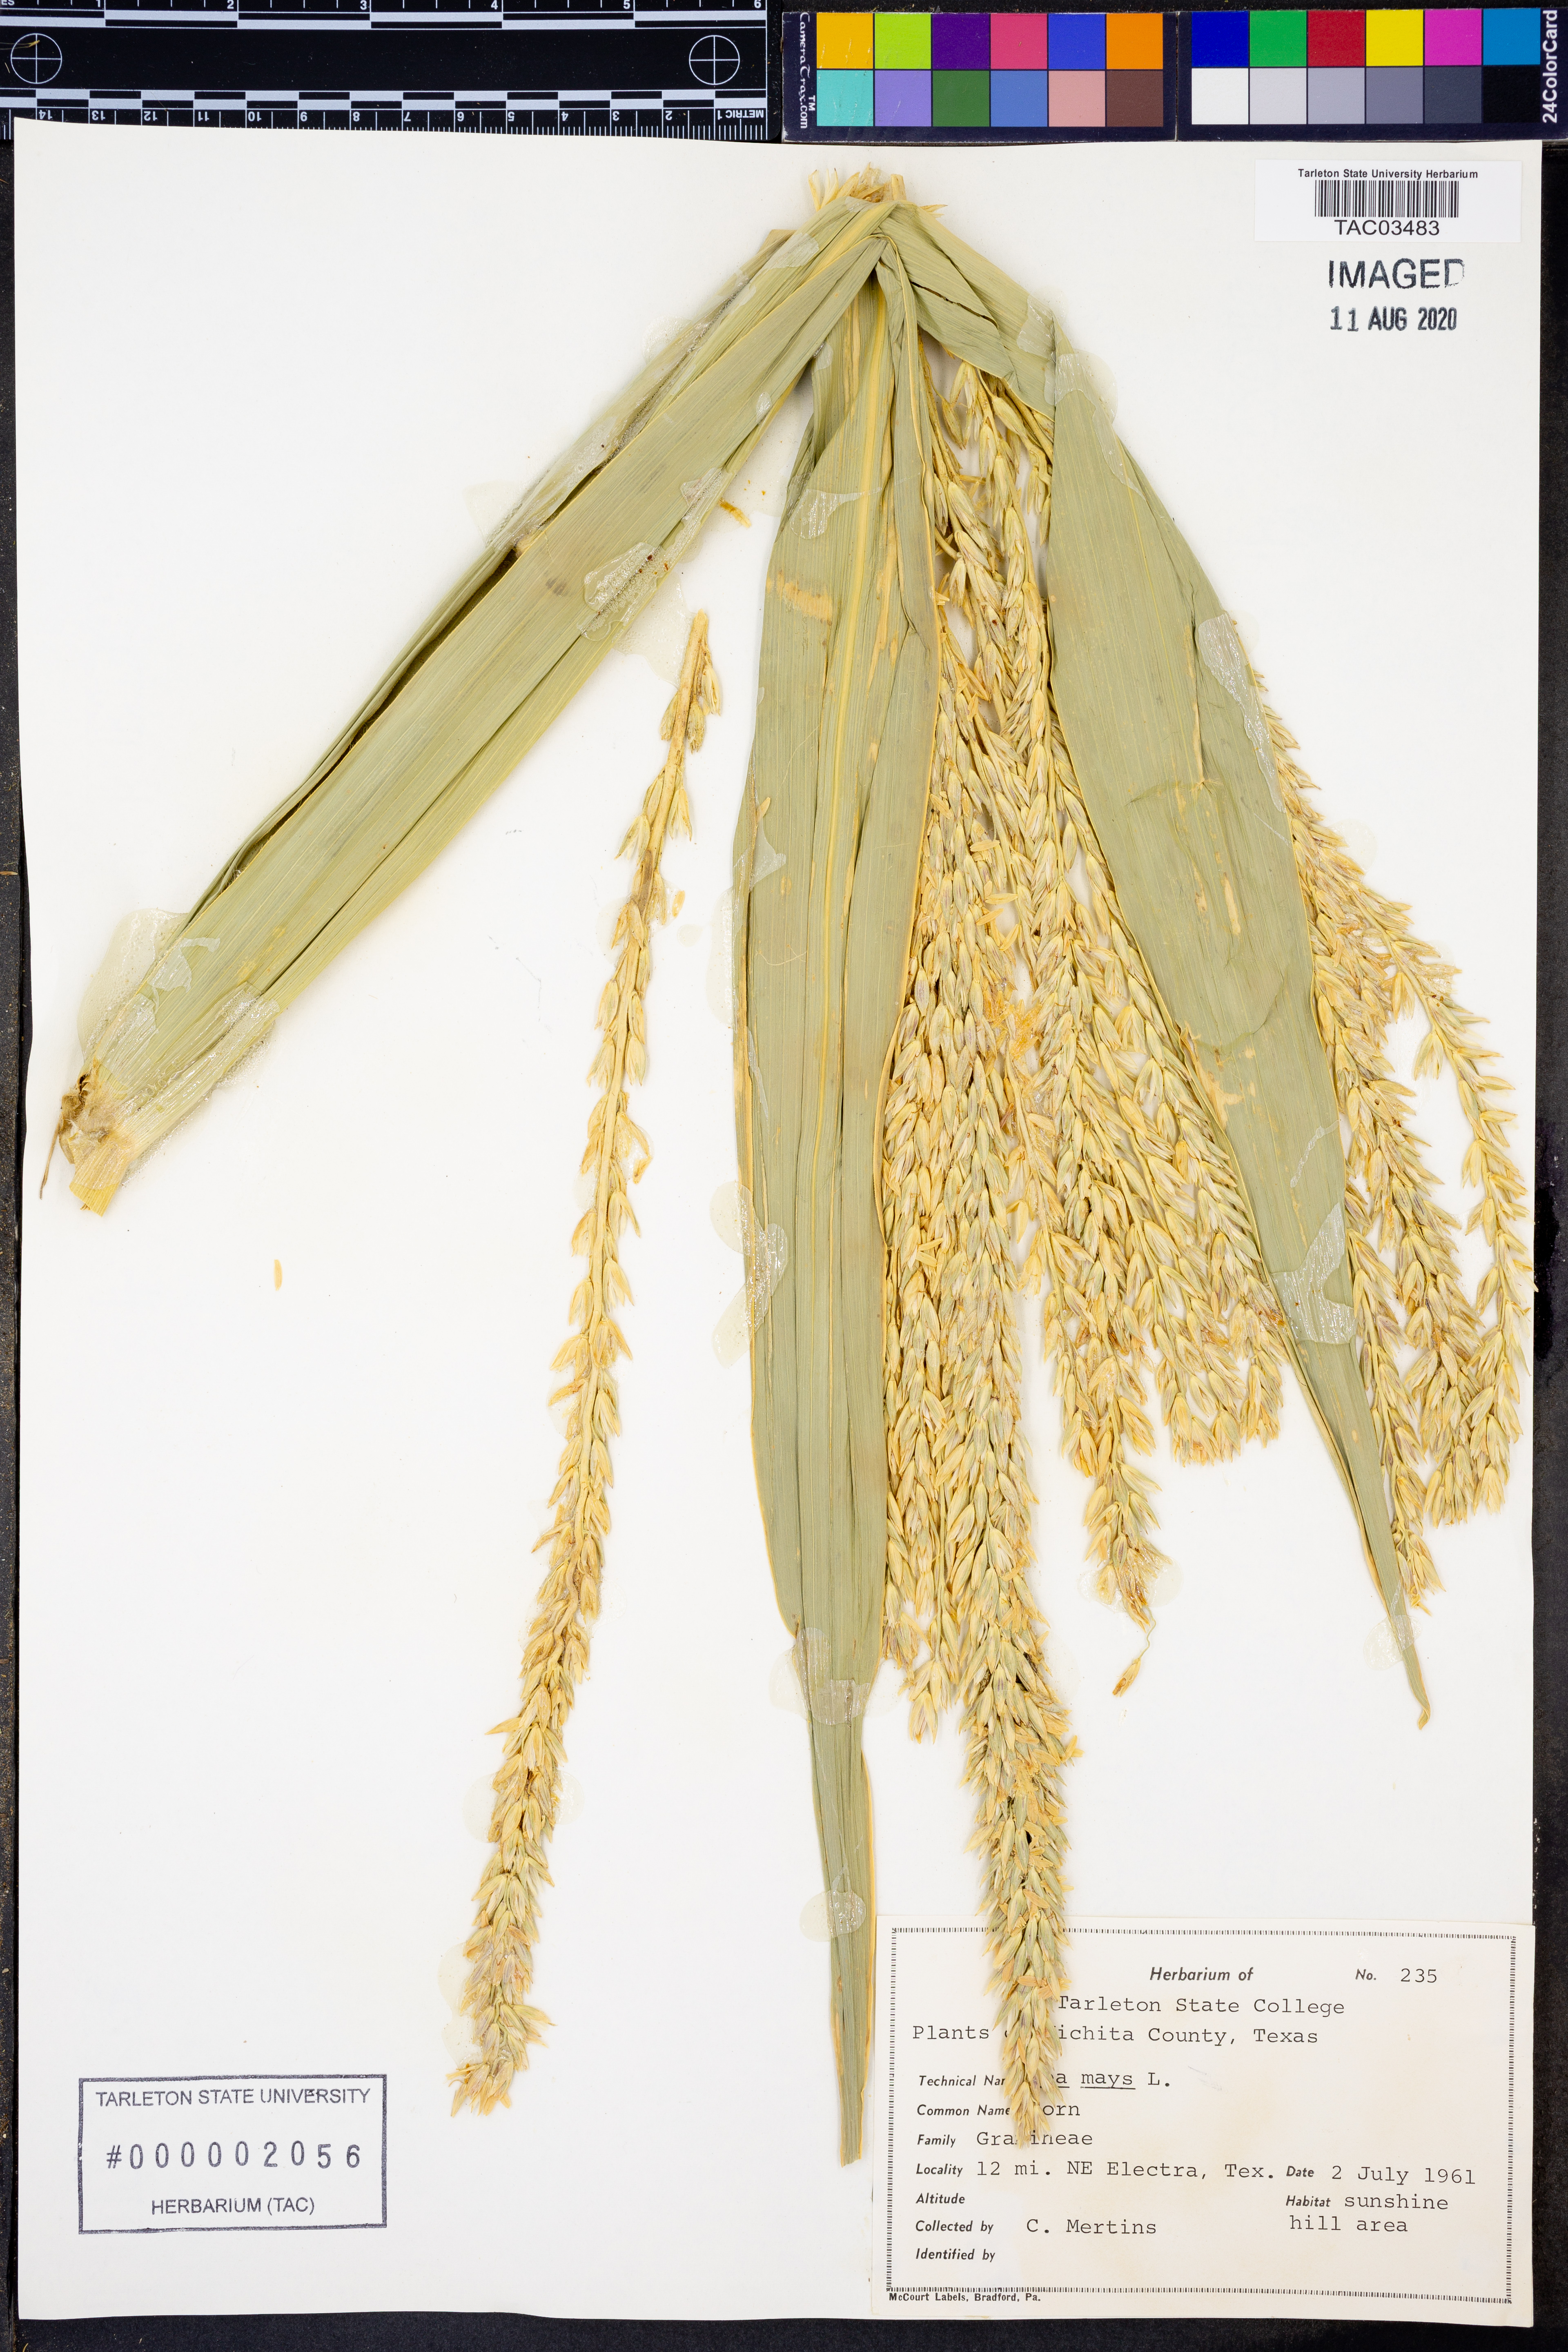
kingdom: Plantae
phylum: Tracheophyta
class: Liliopsida
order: Poales
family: Poaceae
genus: Zea
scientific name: Zea mays
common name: Maize
